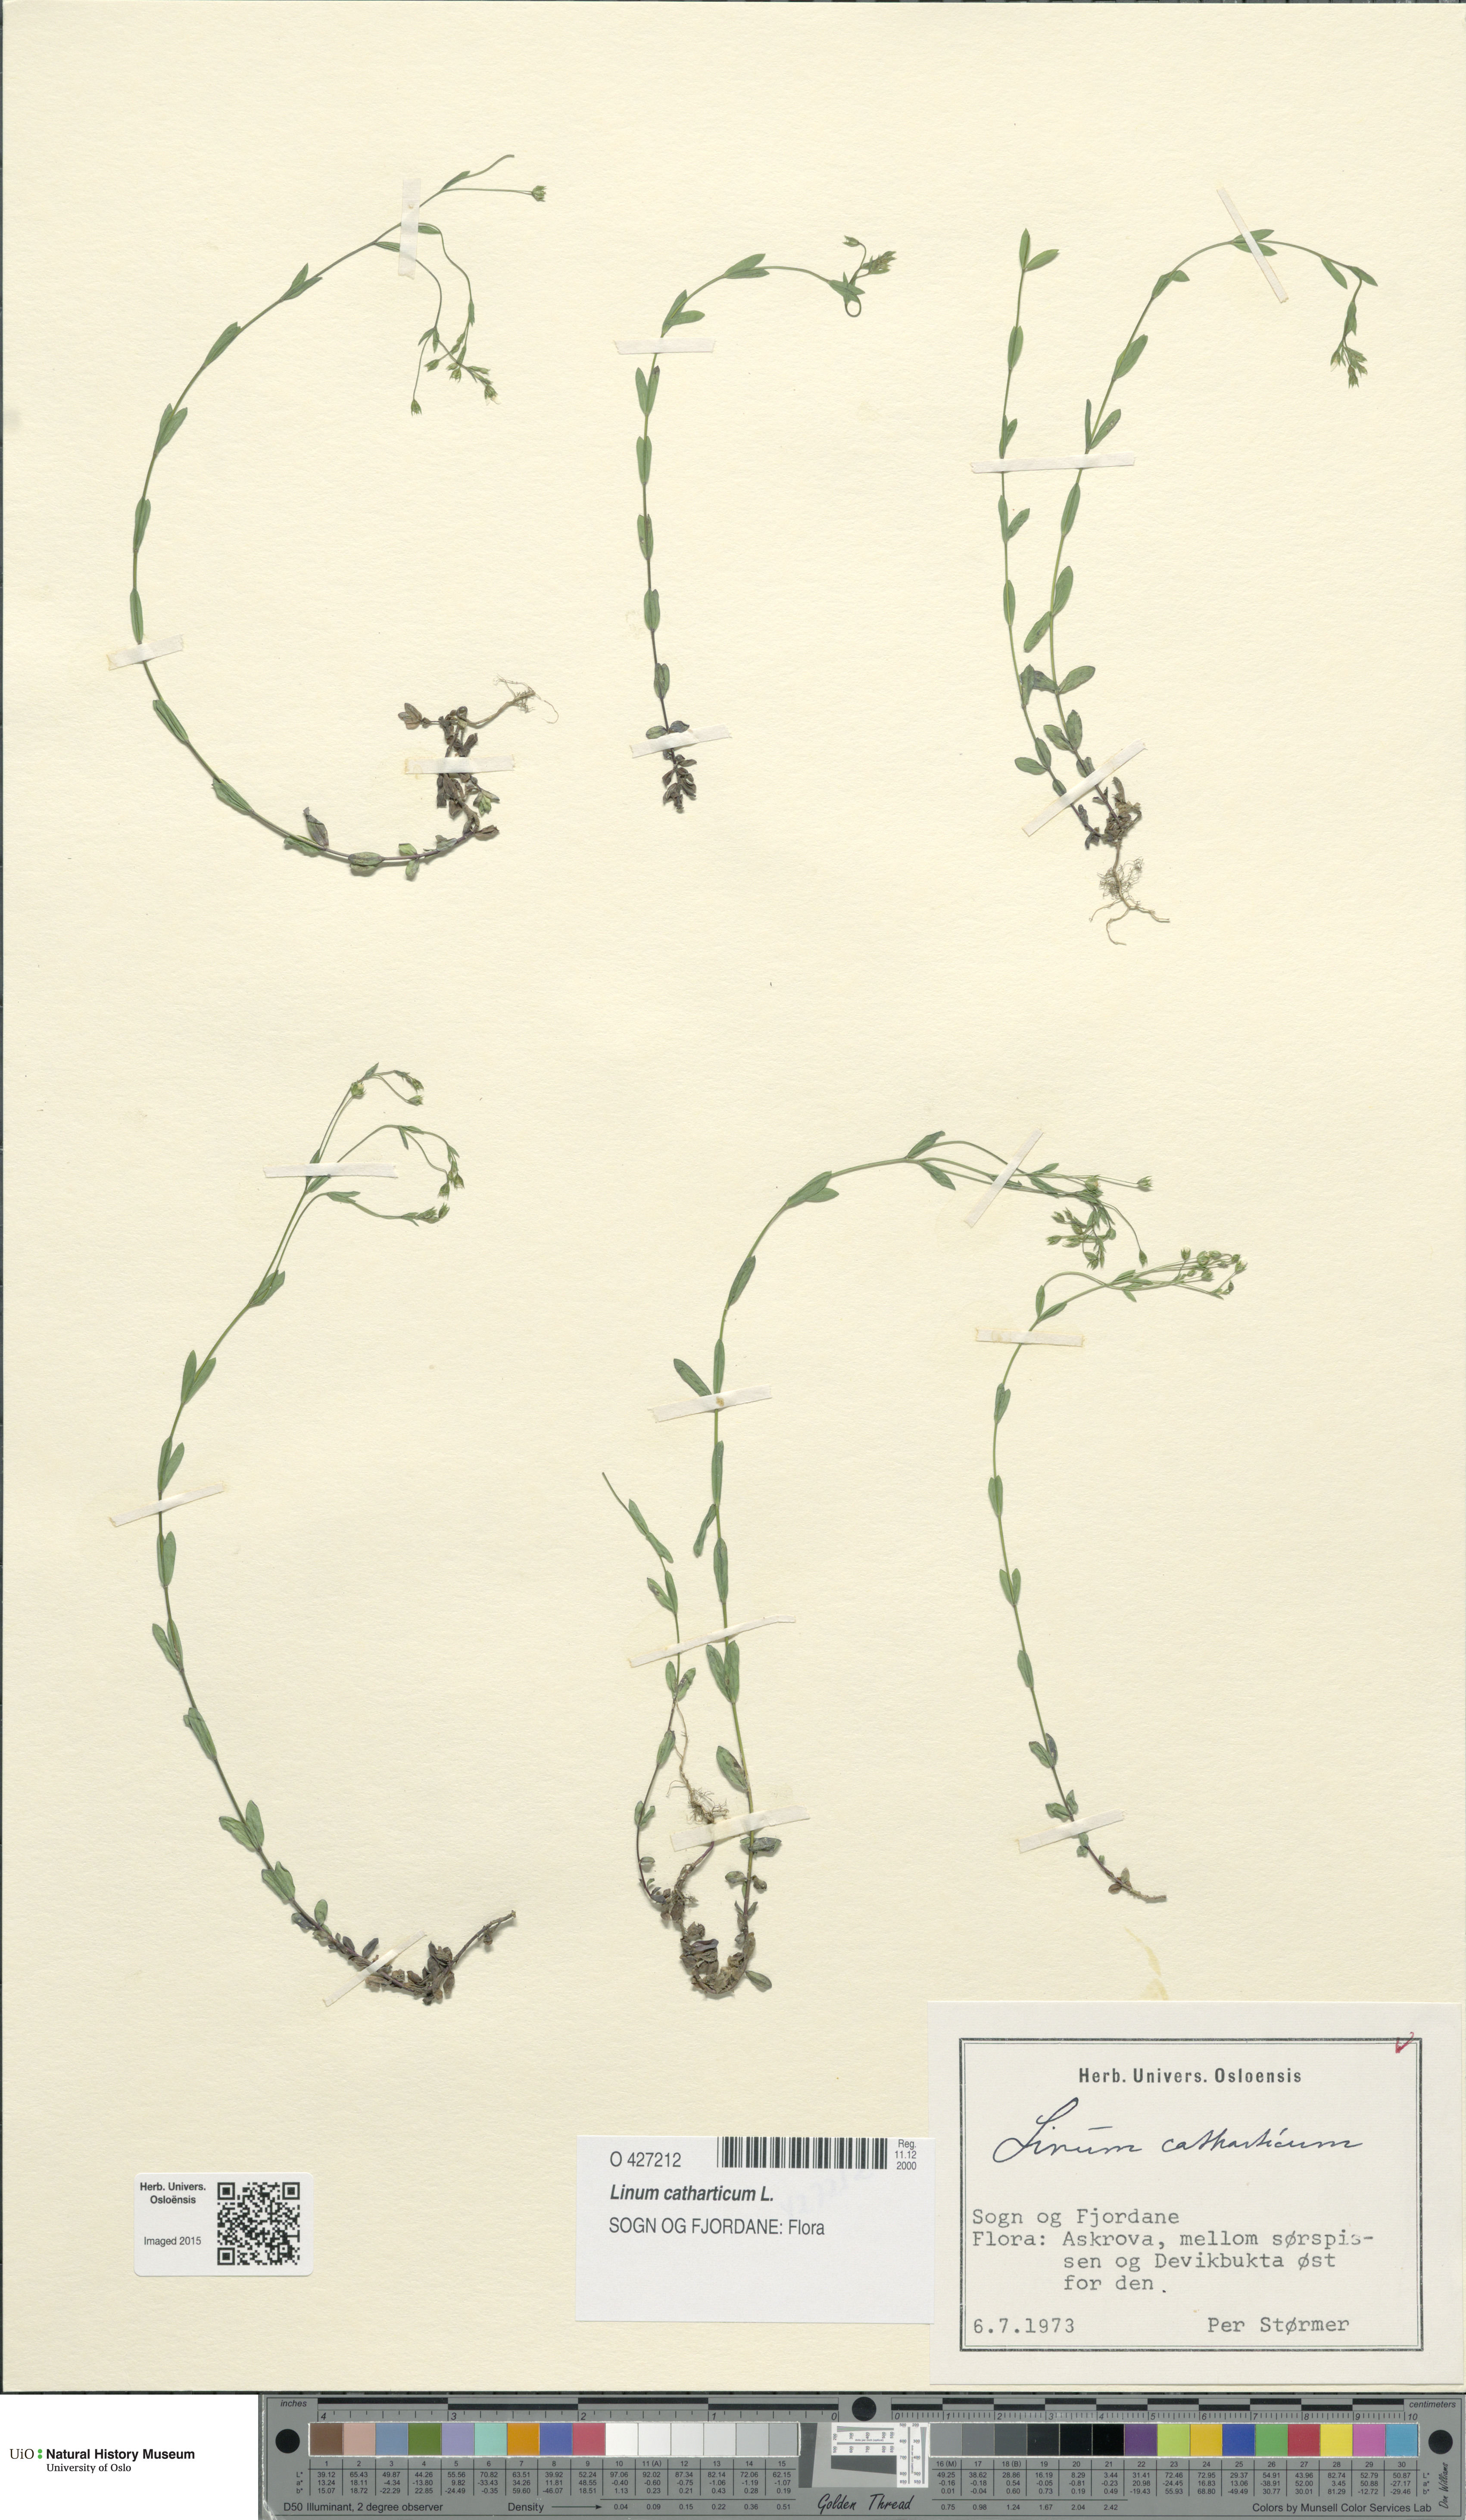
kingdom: Plantae
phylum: Tracheophyta
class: Magnoliopsida
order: Malpighiales
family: Linaceae
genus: Linum
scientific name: Linum catharticum
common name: Fairy flax
